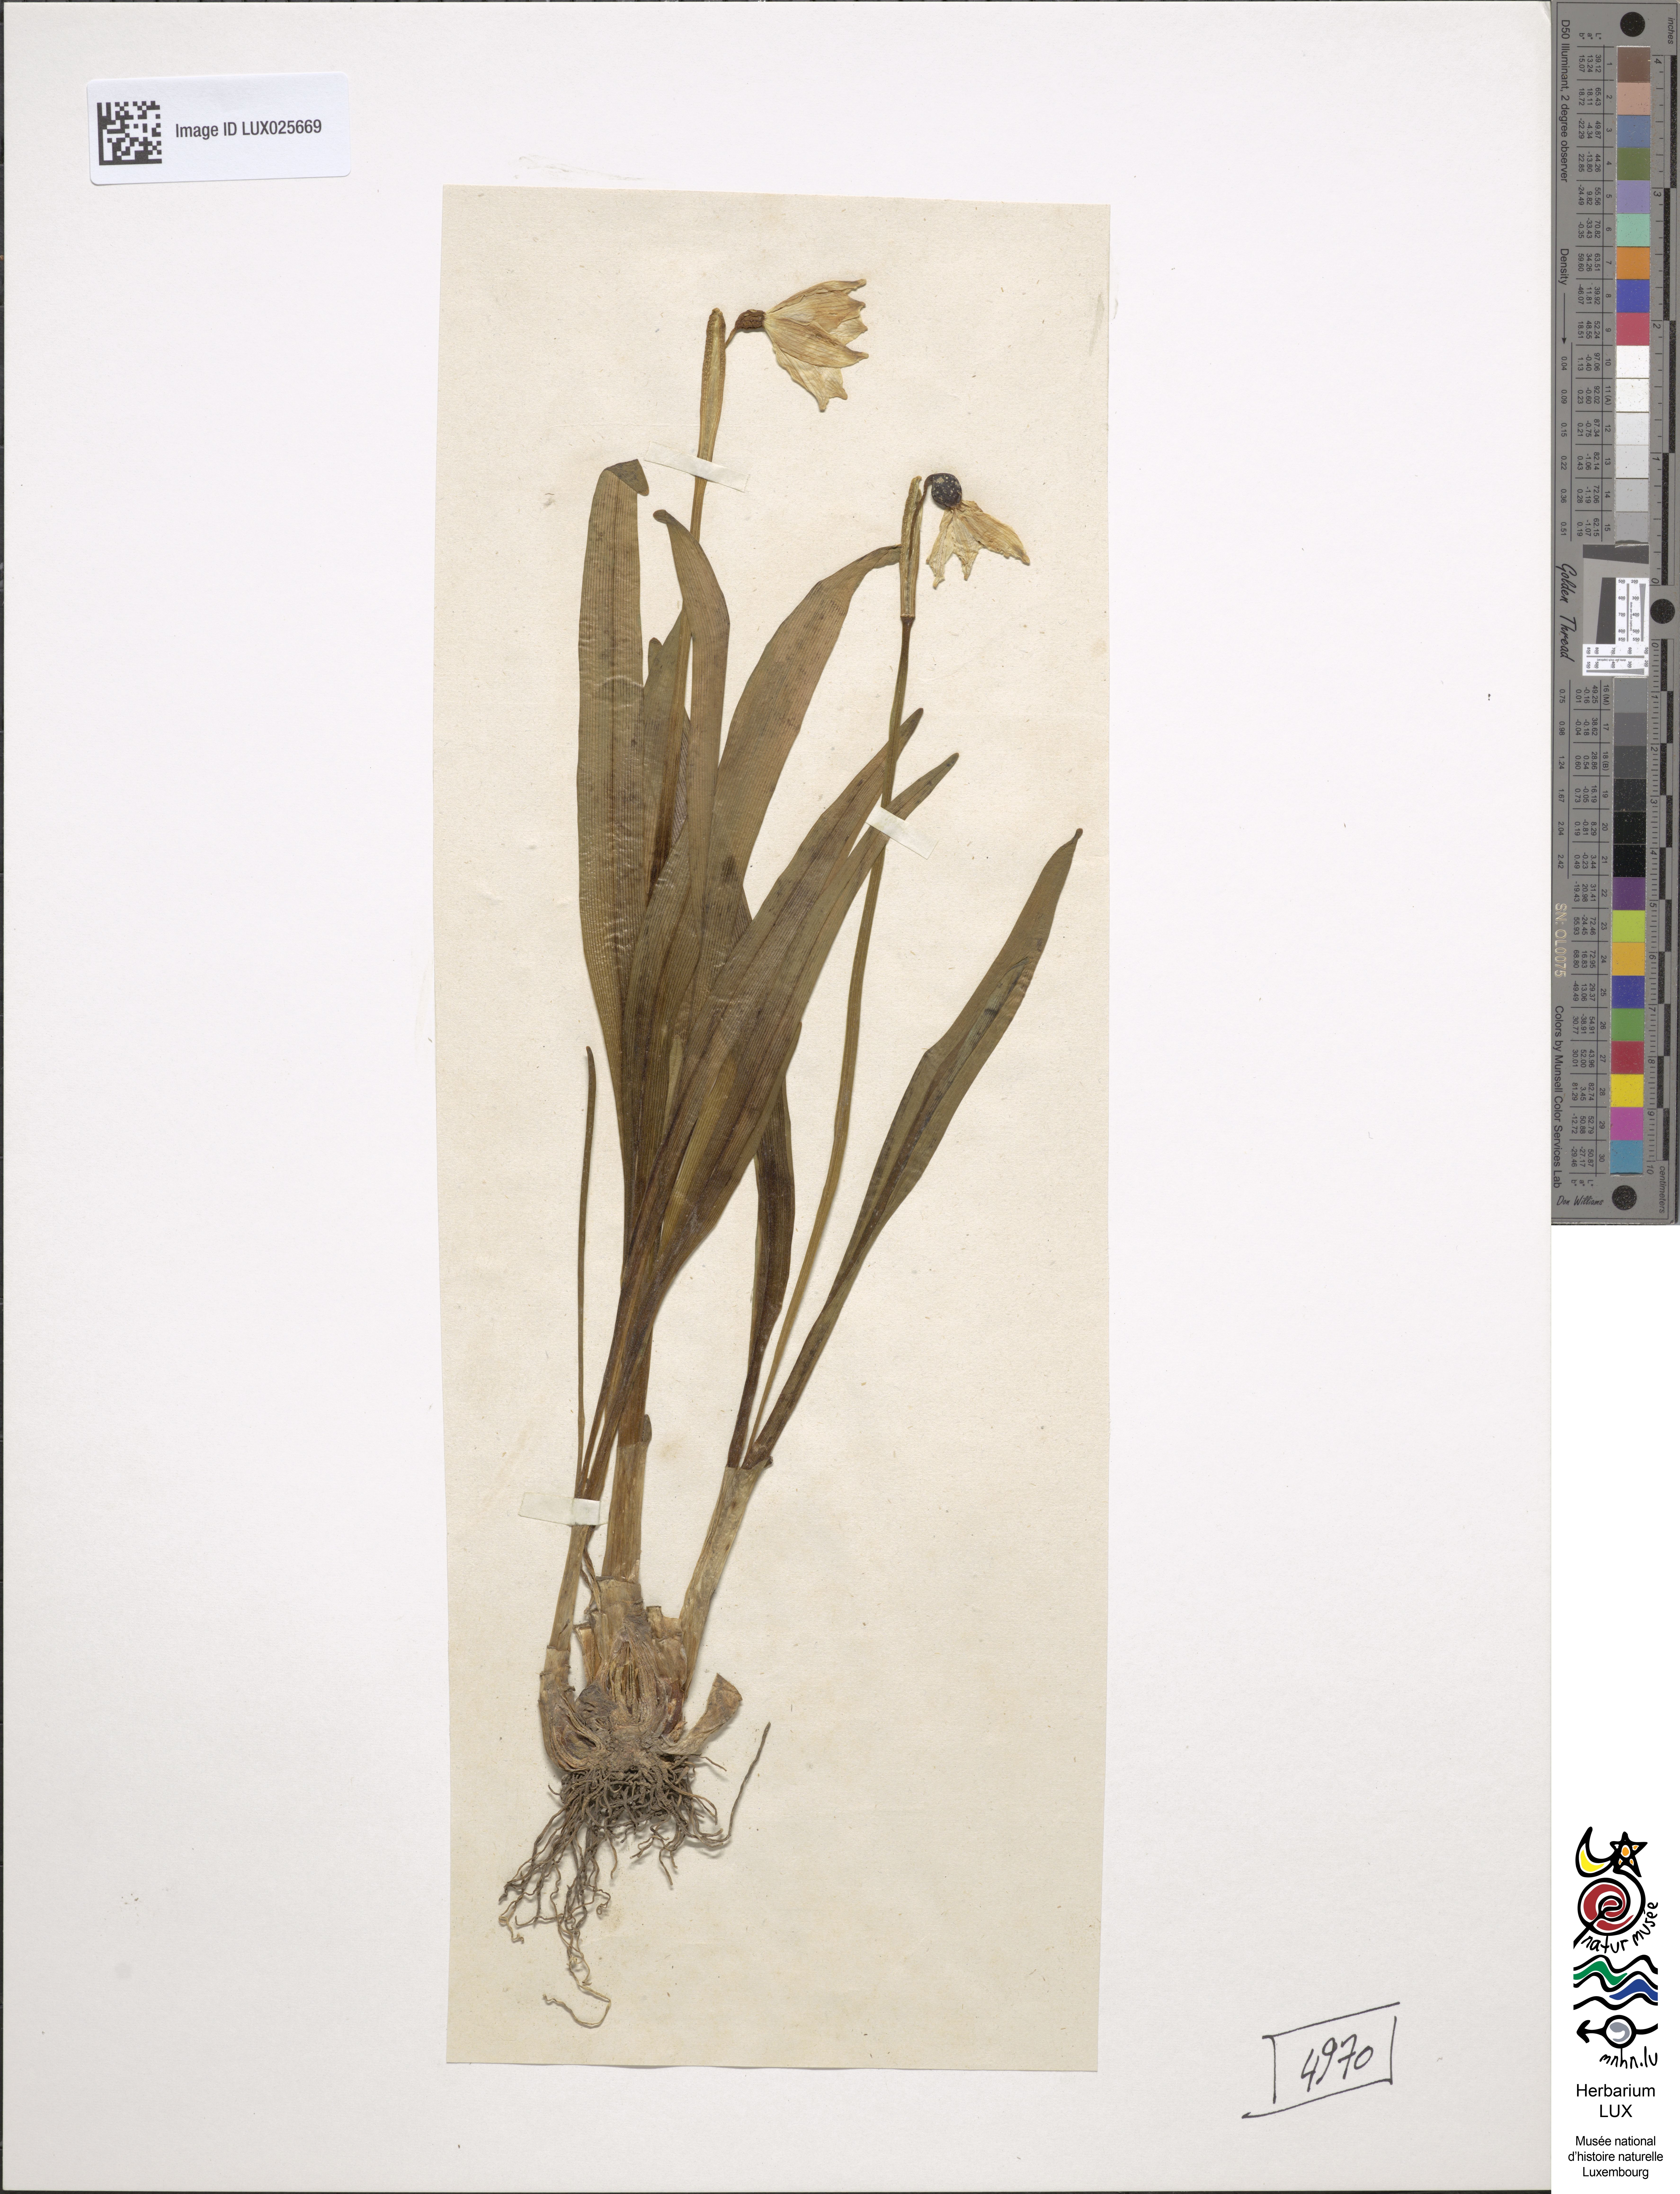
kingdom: Plantae
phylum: Tracheophyta
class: Liliopsida
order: Asparagales
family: Amaryllidaceae
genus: Leucojum
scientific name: Leucojum vernum
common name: Spring snowflake
